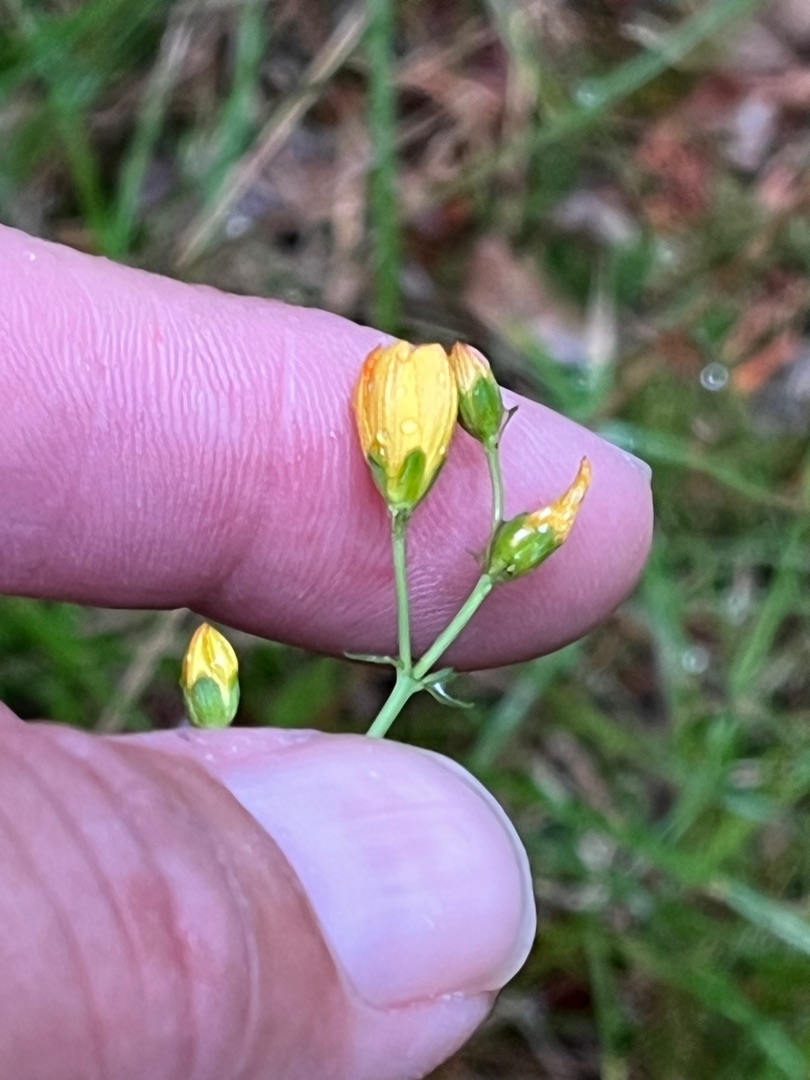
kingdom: Plantae
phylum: Tracheophyta
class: Magnoliopsida
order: Malpighiales
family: Hypericaceae
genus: Hypericum
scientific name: Hypericum pulchrum
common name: Smuk perikon
